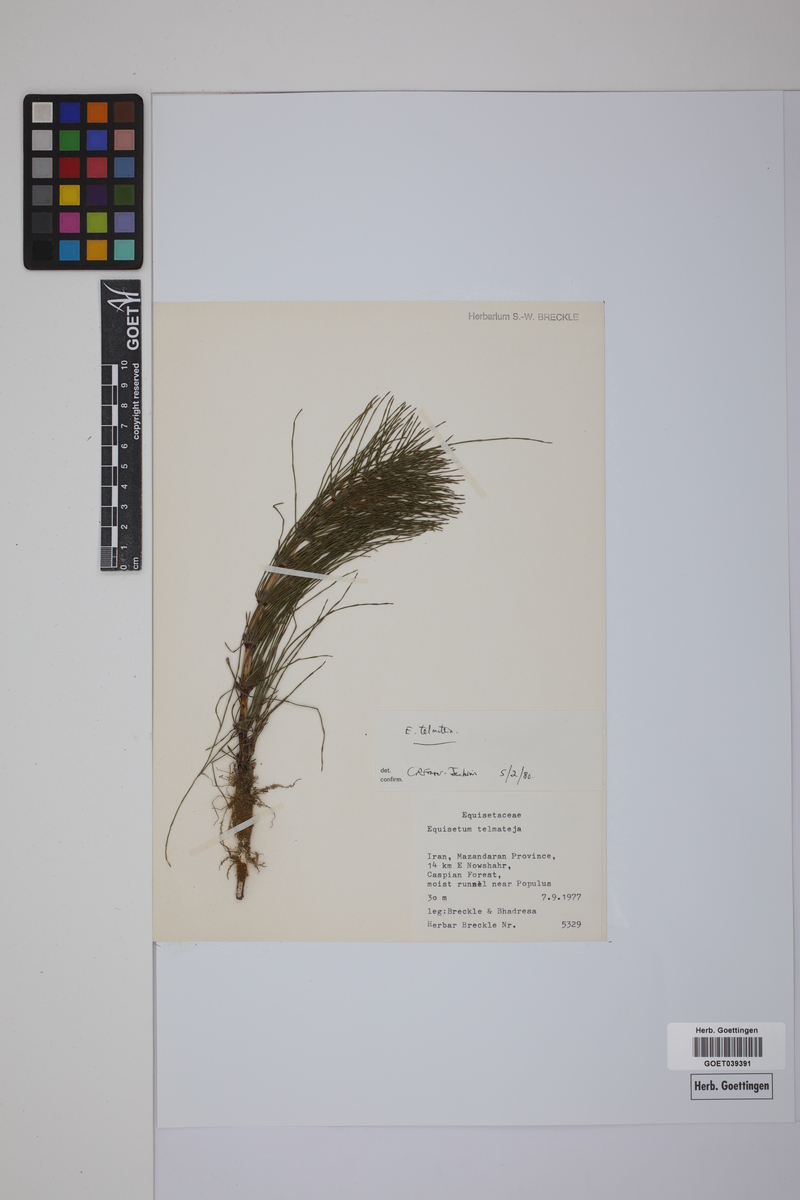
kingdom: Plantae
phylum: Tracheophyta
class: Polypodiopsida
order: Equisetales
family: Equisetaceae
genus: Equisetum
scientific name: Equisetum telmateia
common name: Great horsetail
